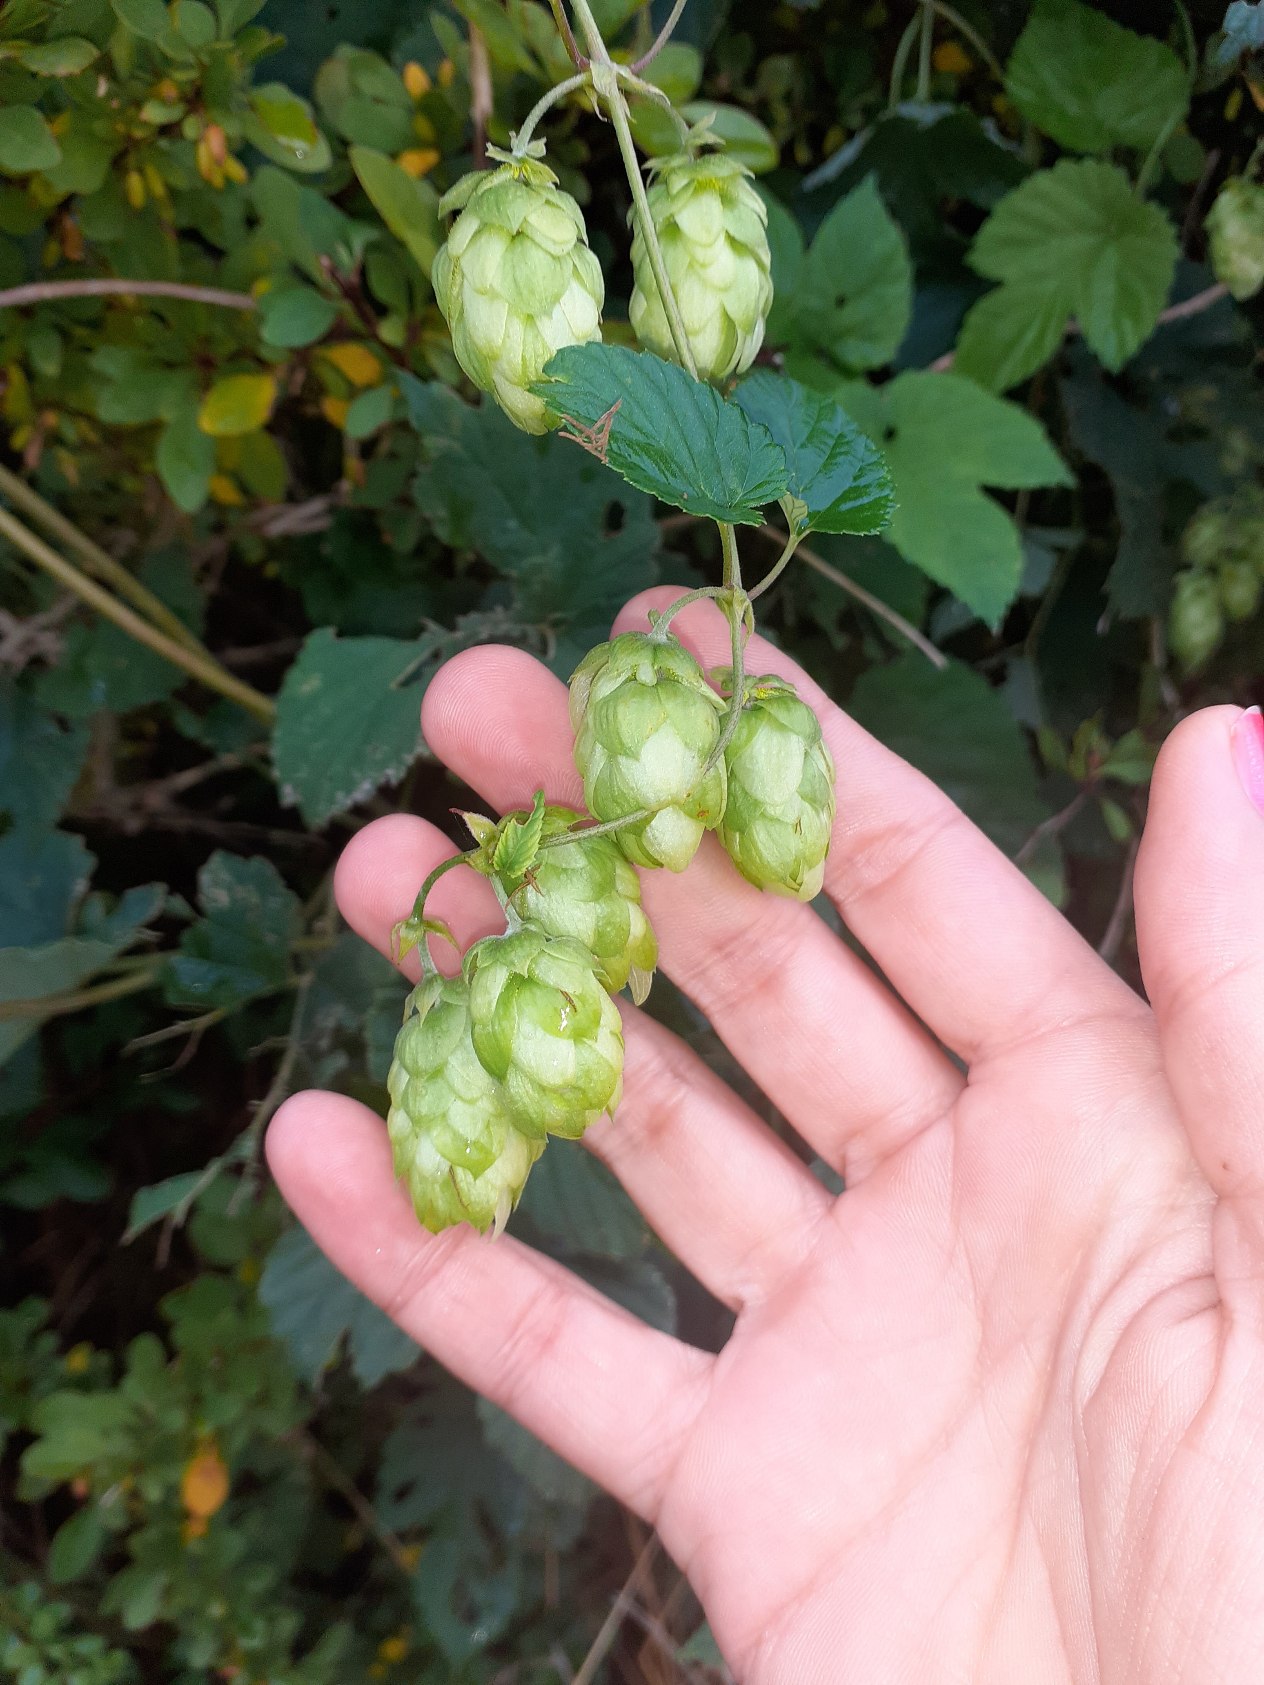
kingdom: Plantae
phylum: Tracheophyta
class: Magnoliopsida
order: Rosales
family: Cannabaceae
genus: Humulus
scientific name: Humulus lupulus
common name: Humle
